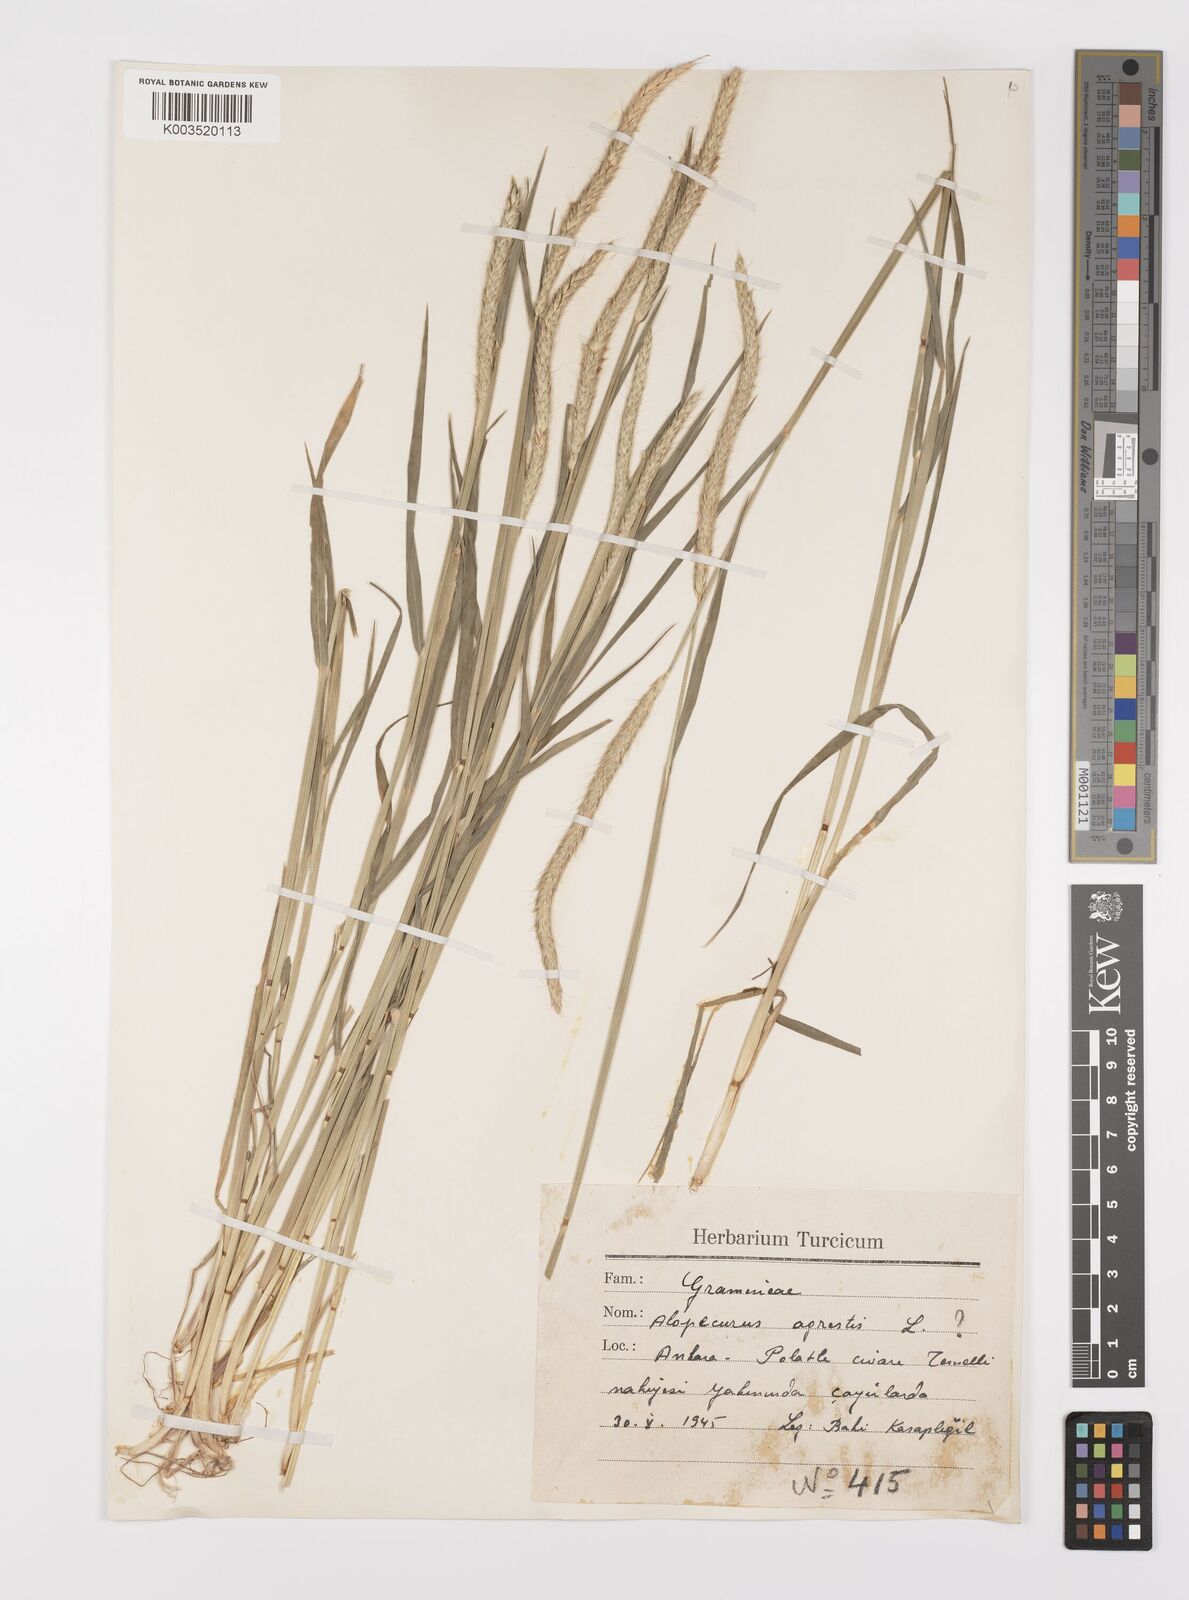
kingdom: Plantae
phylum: Tracheophyta
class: Liliopsida
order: Poales
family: Poaceae
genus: Alopecurus
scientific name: Alopecurus myosuroides
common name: Black-grass
